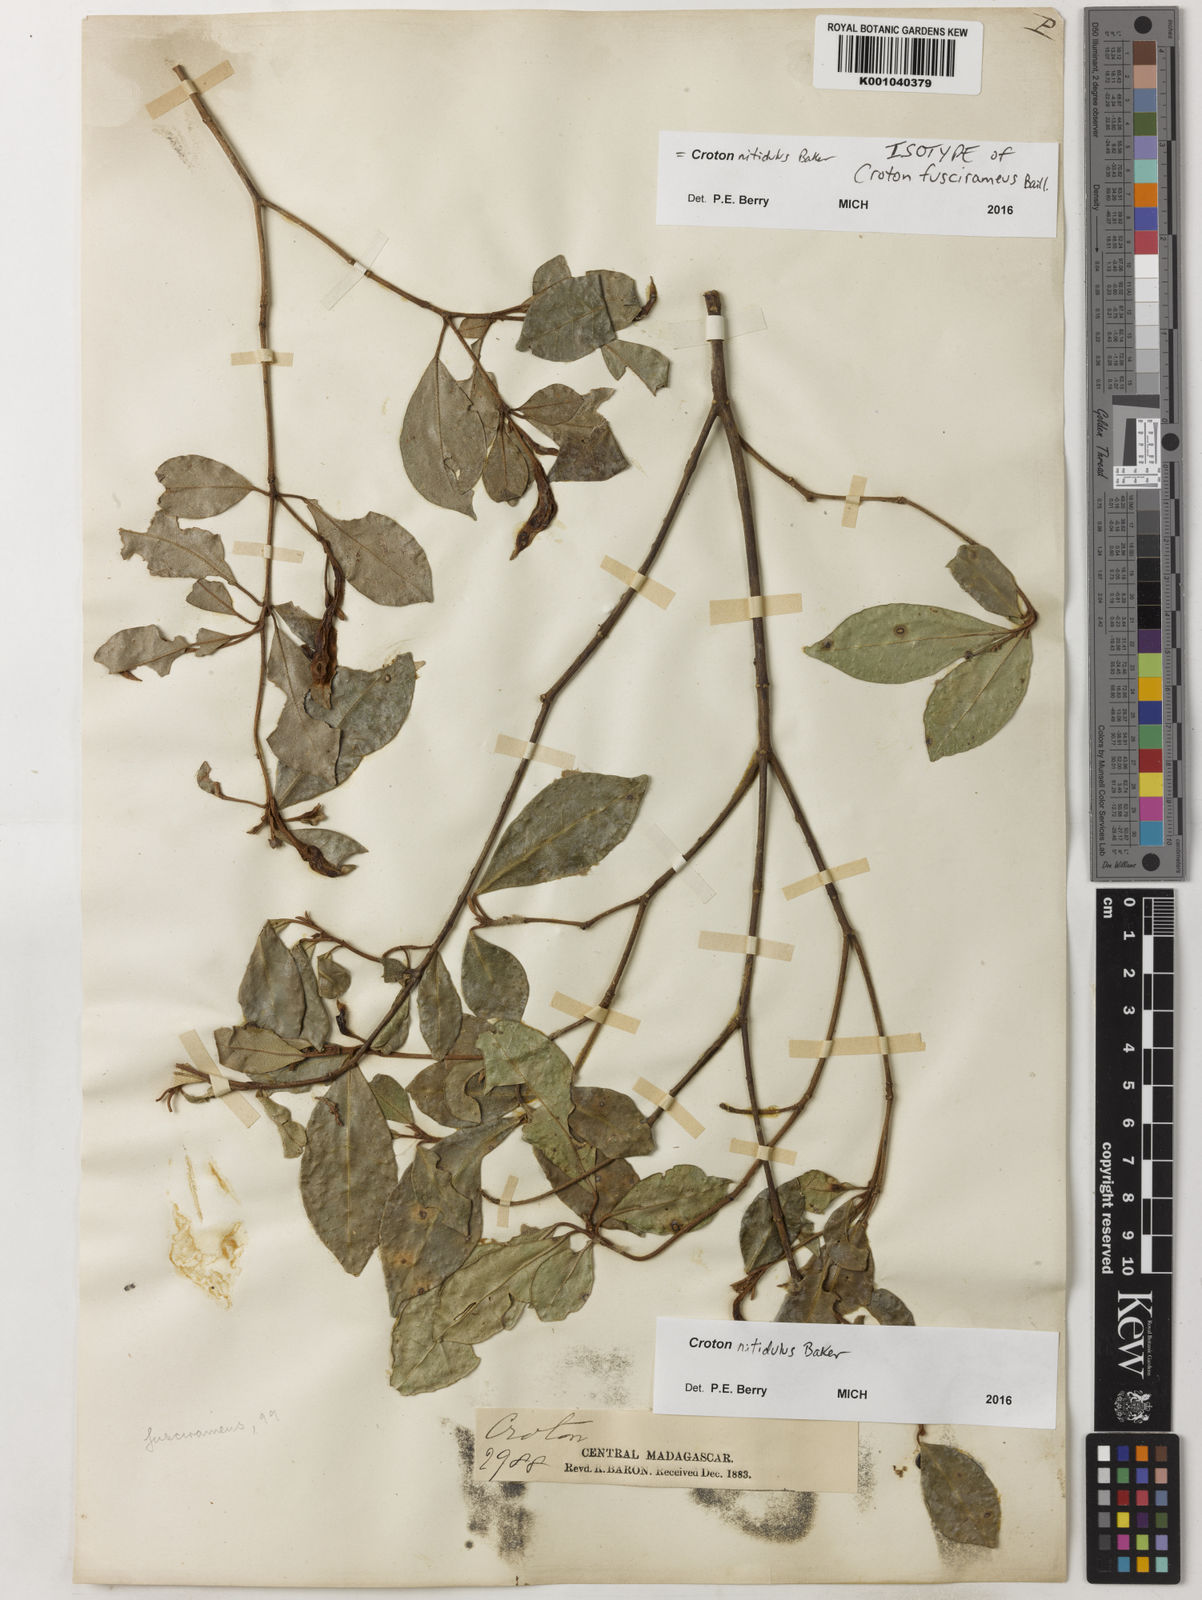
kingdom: Plantae
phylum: Tracheophyta
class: Magnoliopsida
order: Malpighiales
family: Euphorbiaceae
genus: Croton
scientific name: Croton nitidulus
